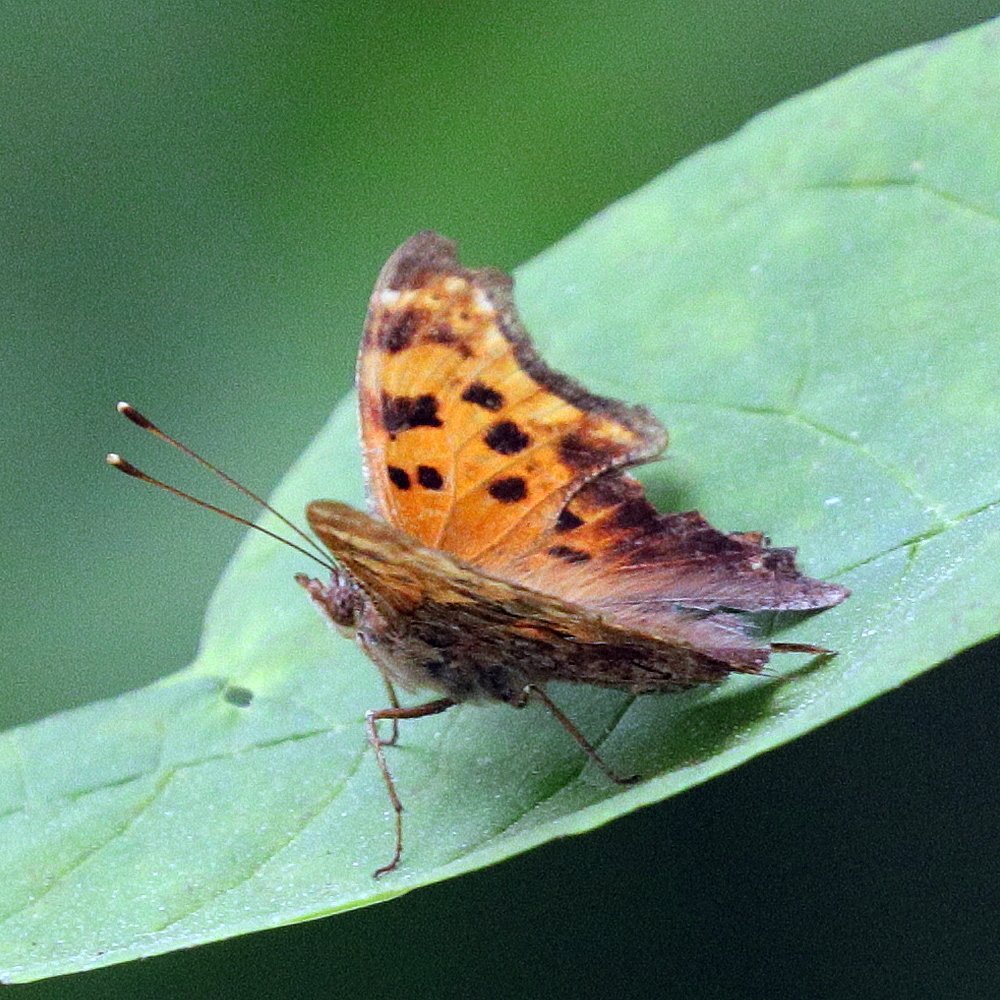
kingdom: Animalia
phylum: Arthropoda
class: Insecta
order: Lepidoptera
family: Nymphalidae
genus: Polygonia
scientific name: Polygonia comma
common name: Eastern Comma
